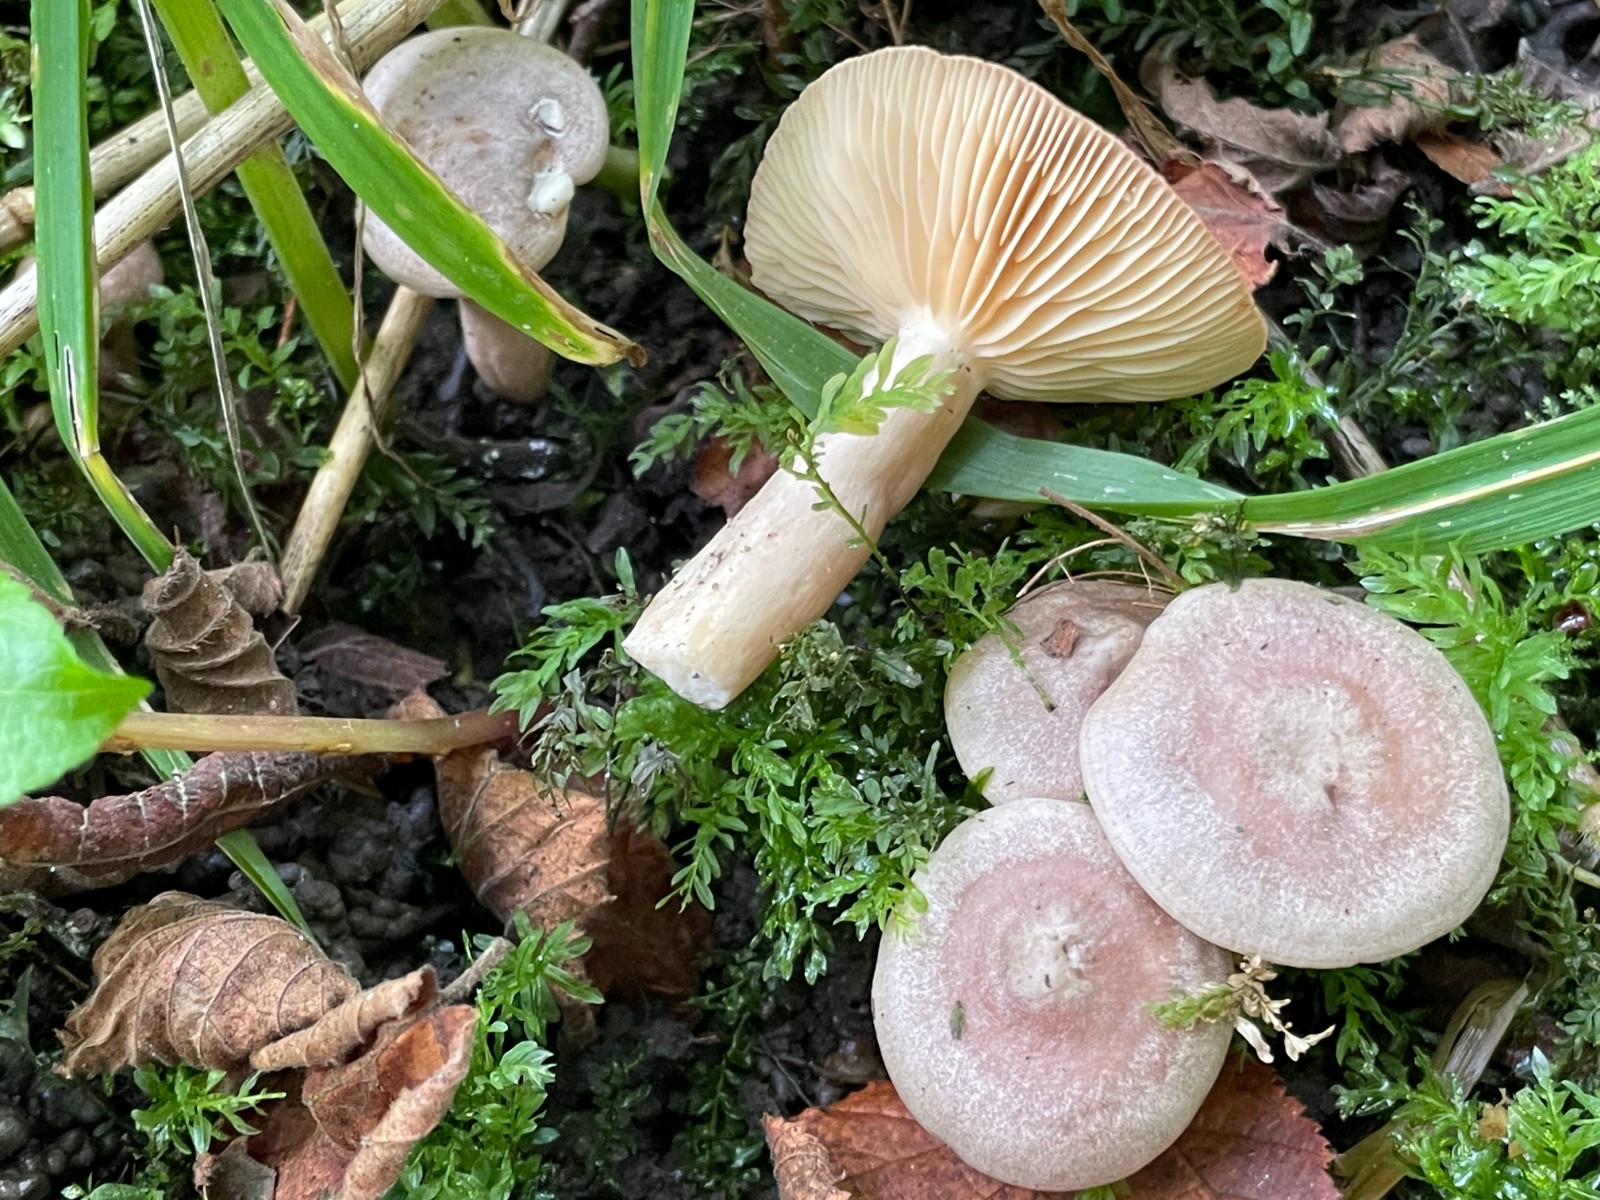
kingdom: Fungi
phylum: Basidiomycota
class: Agaricomycetes
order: Russulales
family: Russulaceae
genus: Lactarius
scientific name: Lactarius pyrogalus
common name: hassel-mælkehat
